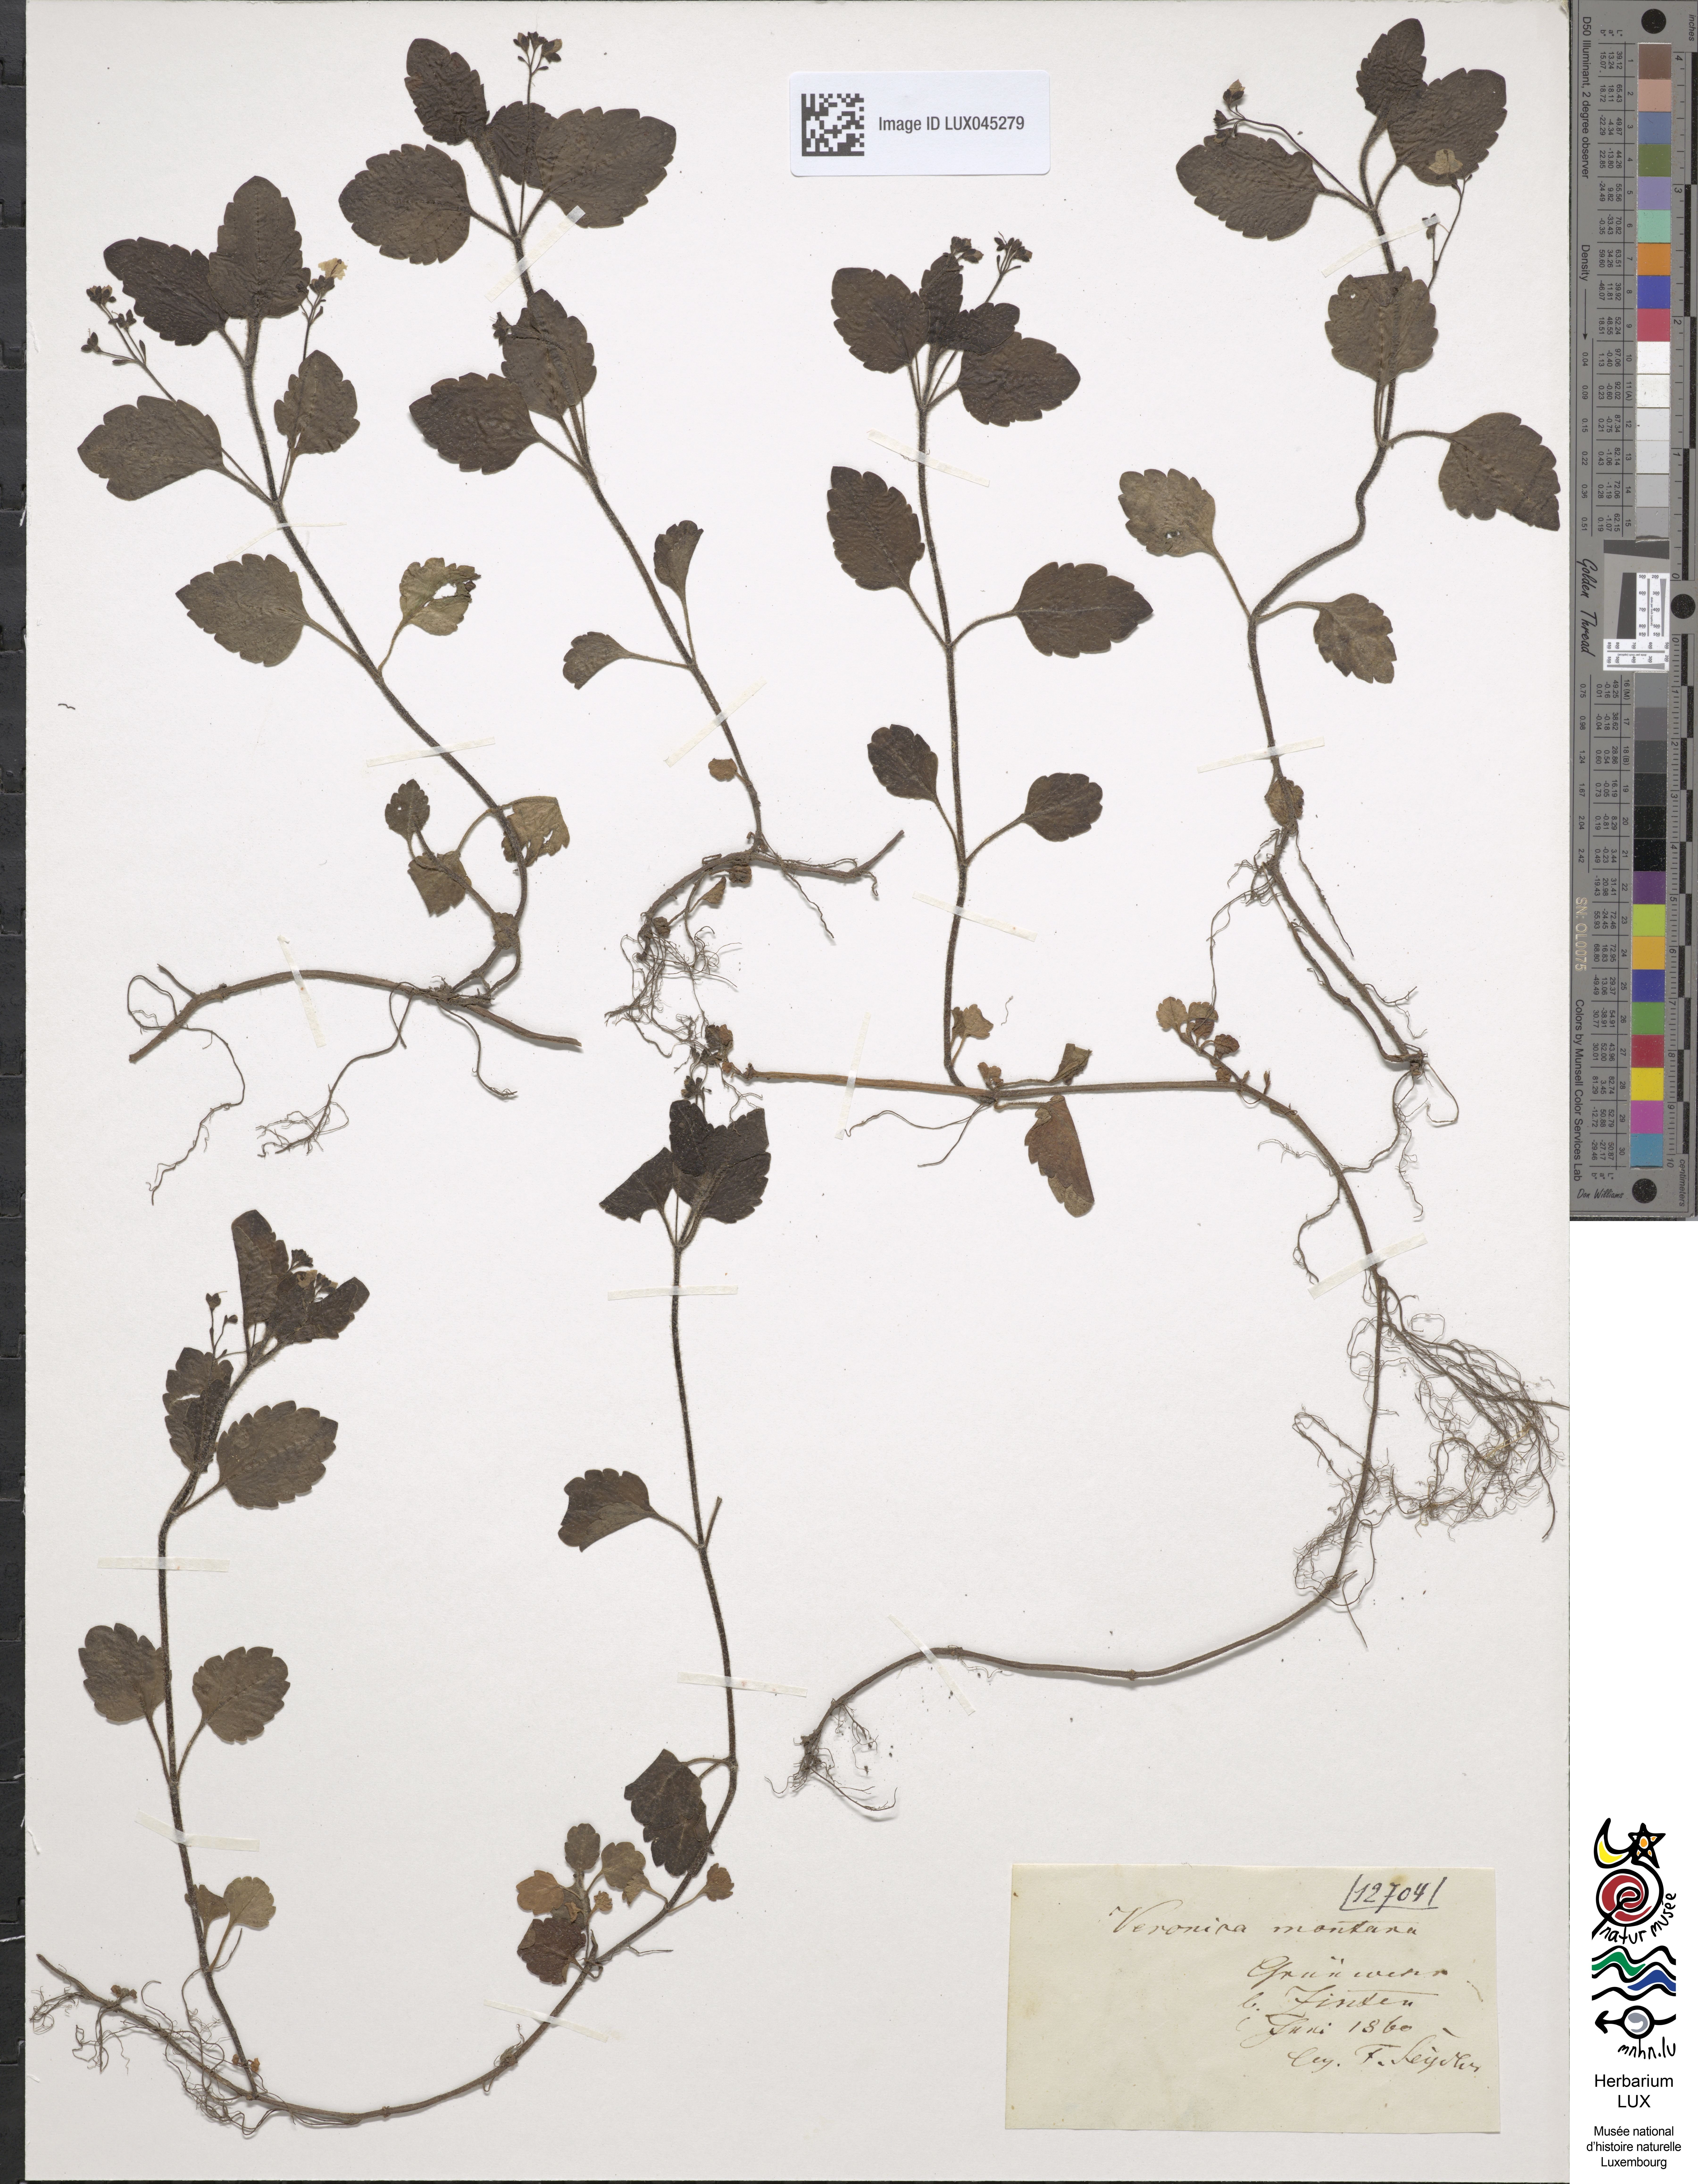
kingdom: Plantae
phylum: Tracheophyta
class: Magnoliopsida
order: Lamiales
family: Plantaginaceae
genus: Veronica
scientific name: Veronica montana
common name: Wood speedwell
